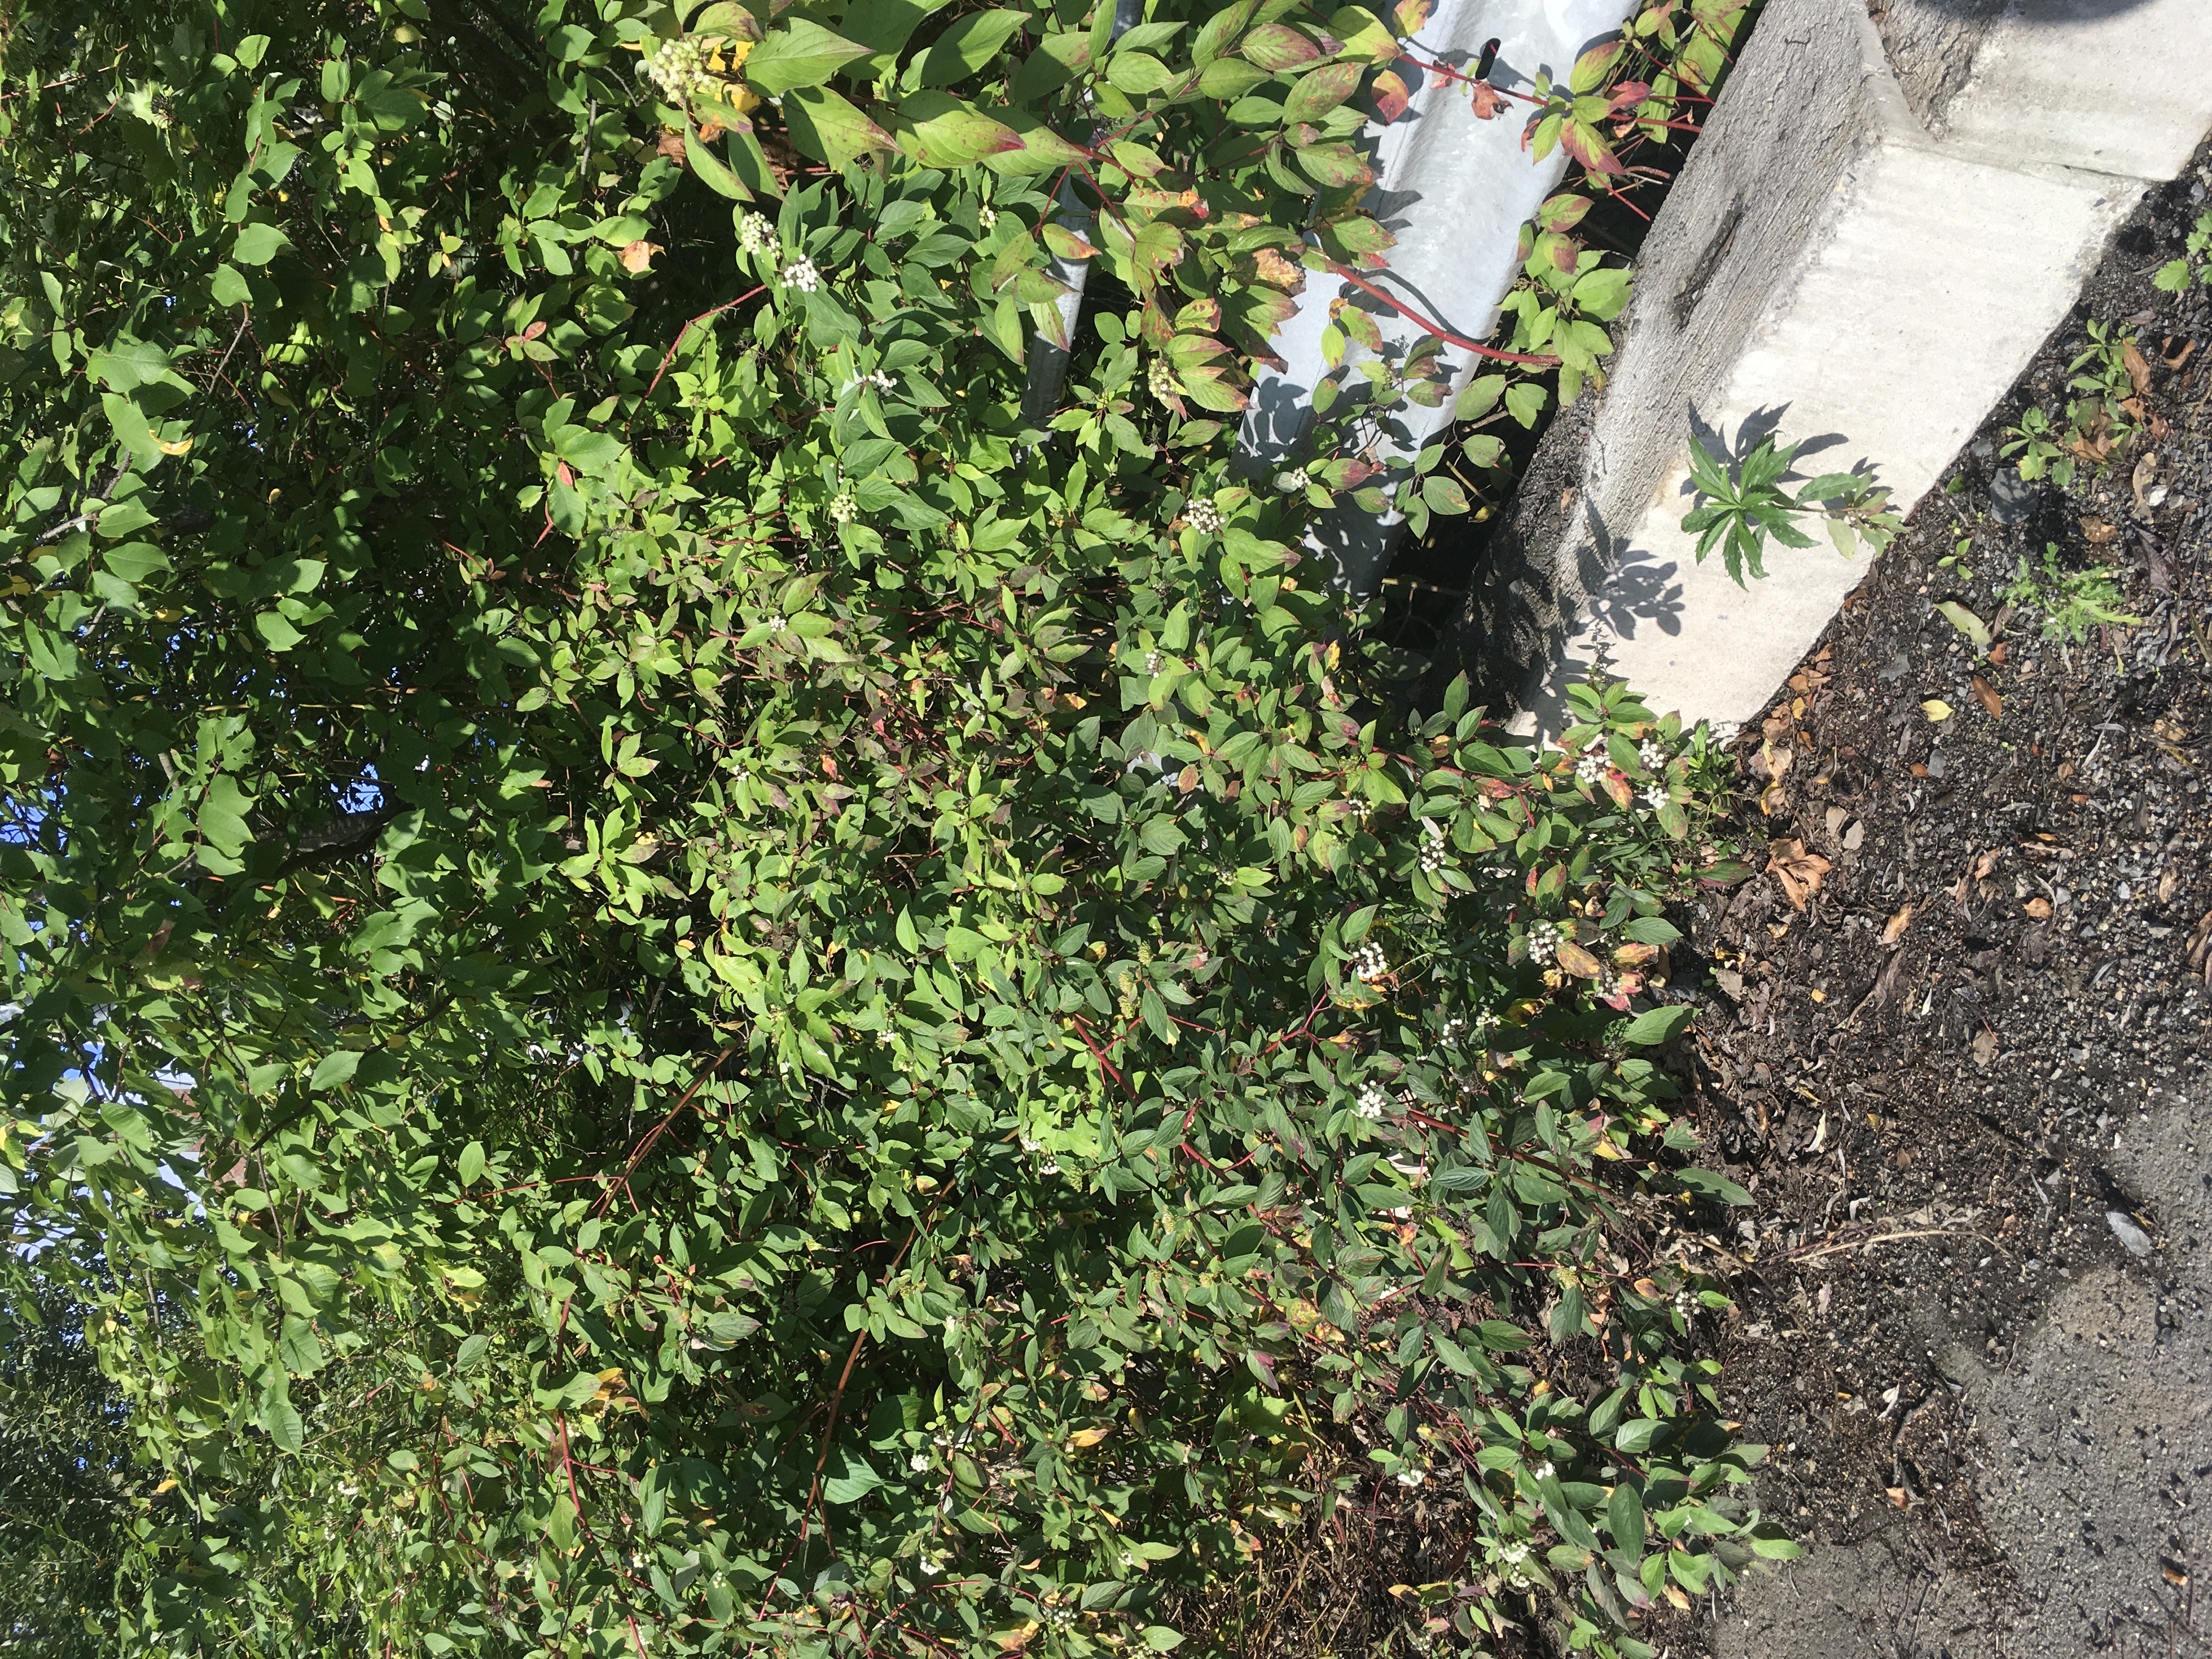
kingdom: Plantae
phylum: Tracheophyta
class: Magnoliopsida
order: Cornales
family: Cornaceae
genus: Cornus
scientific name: Cornus sericea
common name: alaskakornell
